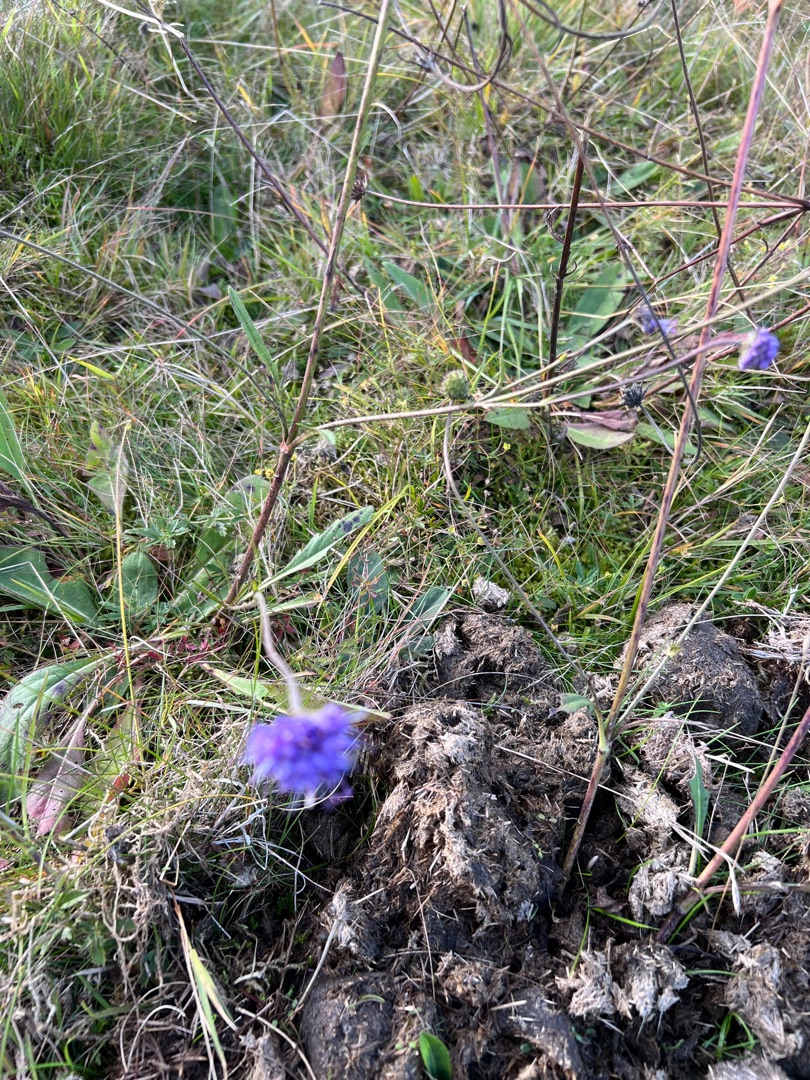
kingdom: Plantae
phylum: Tracheophyta
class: Magnoliopsida
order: Dipsacales
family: Caprifoliaceae
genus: Succisa
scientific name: Succisa pratensis
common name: Djævelsbid
